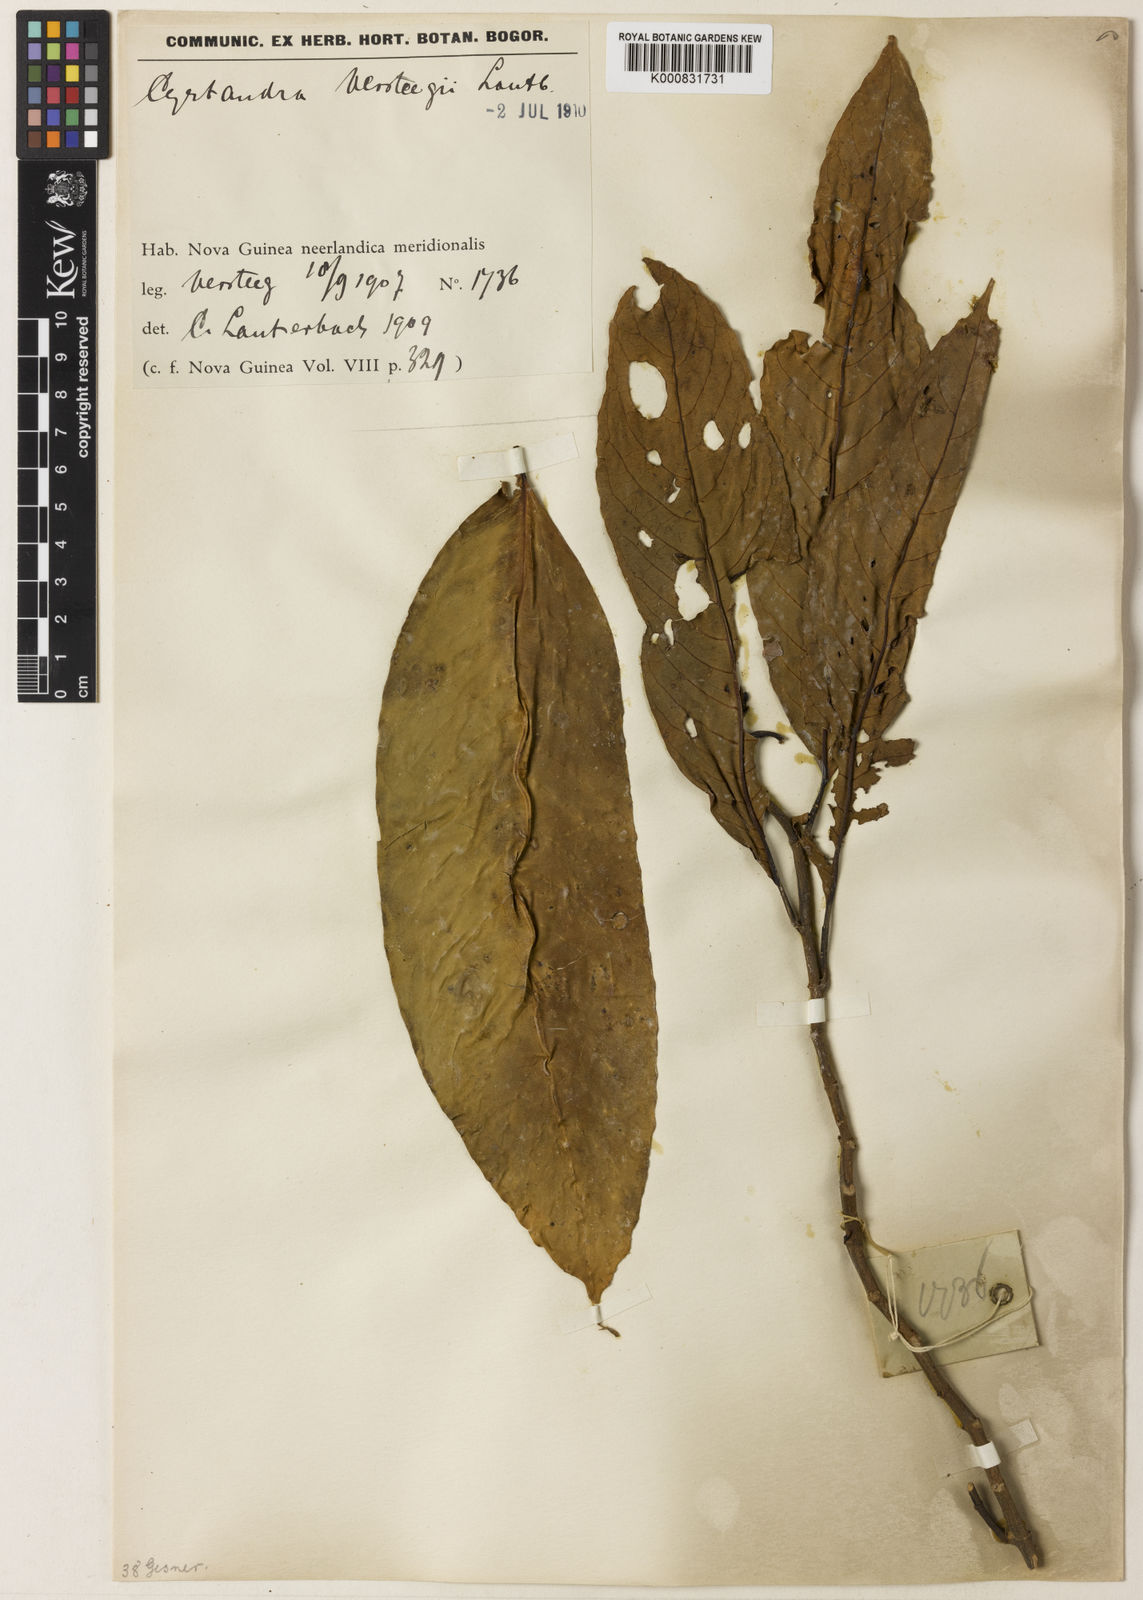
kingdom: Plantae
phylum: Tracheophyta
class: Magnoliopsida
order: Lamiales
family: Gesneriaceae
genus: Cyrtandra
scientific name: Cyrtandra versteegii
